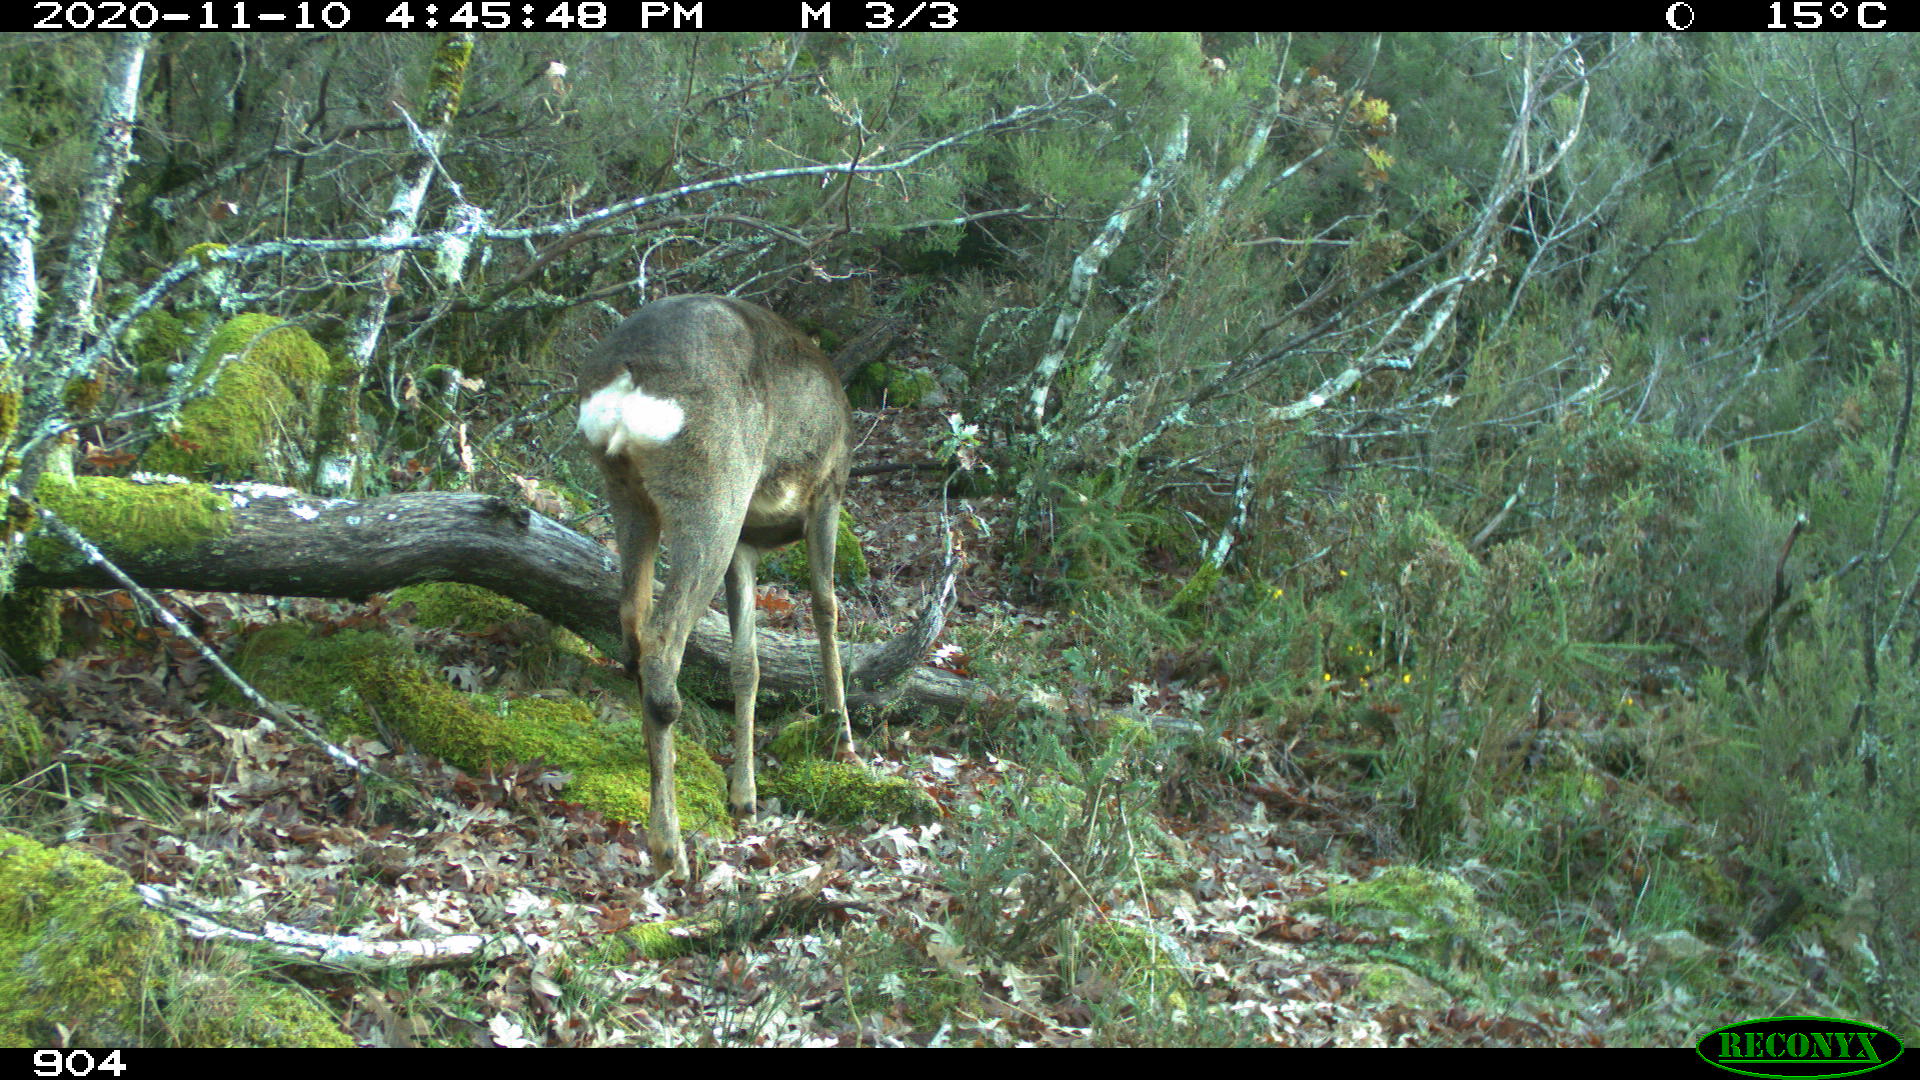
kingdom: Animalia
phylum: Chordata
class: Mammalia
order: Artiodactyla
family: Cervidae
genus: Capreolus
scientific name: Capreolus capreolus
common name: Western roe deer
